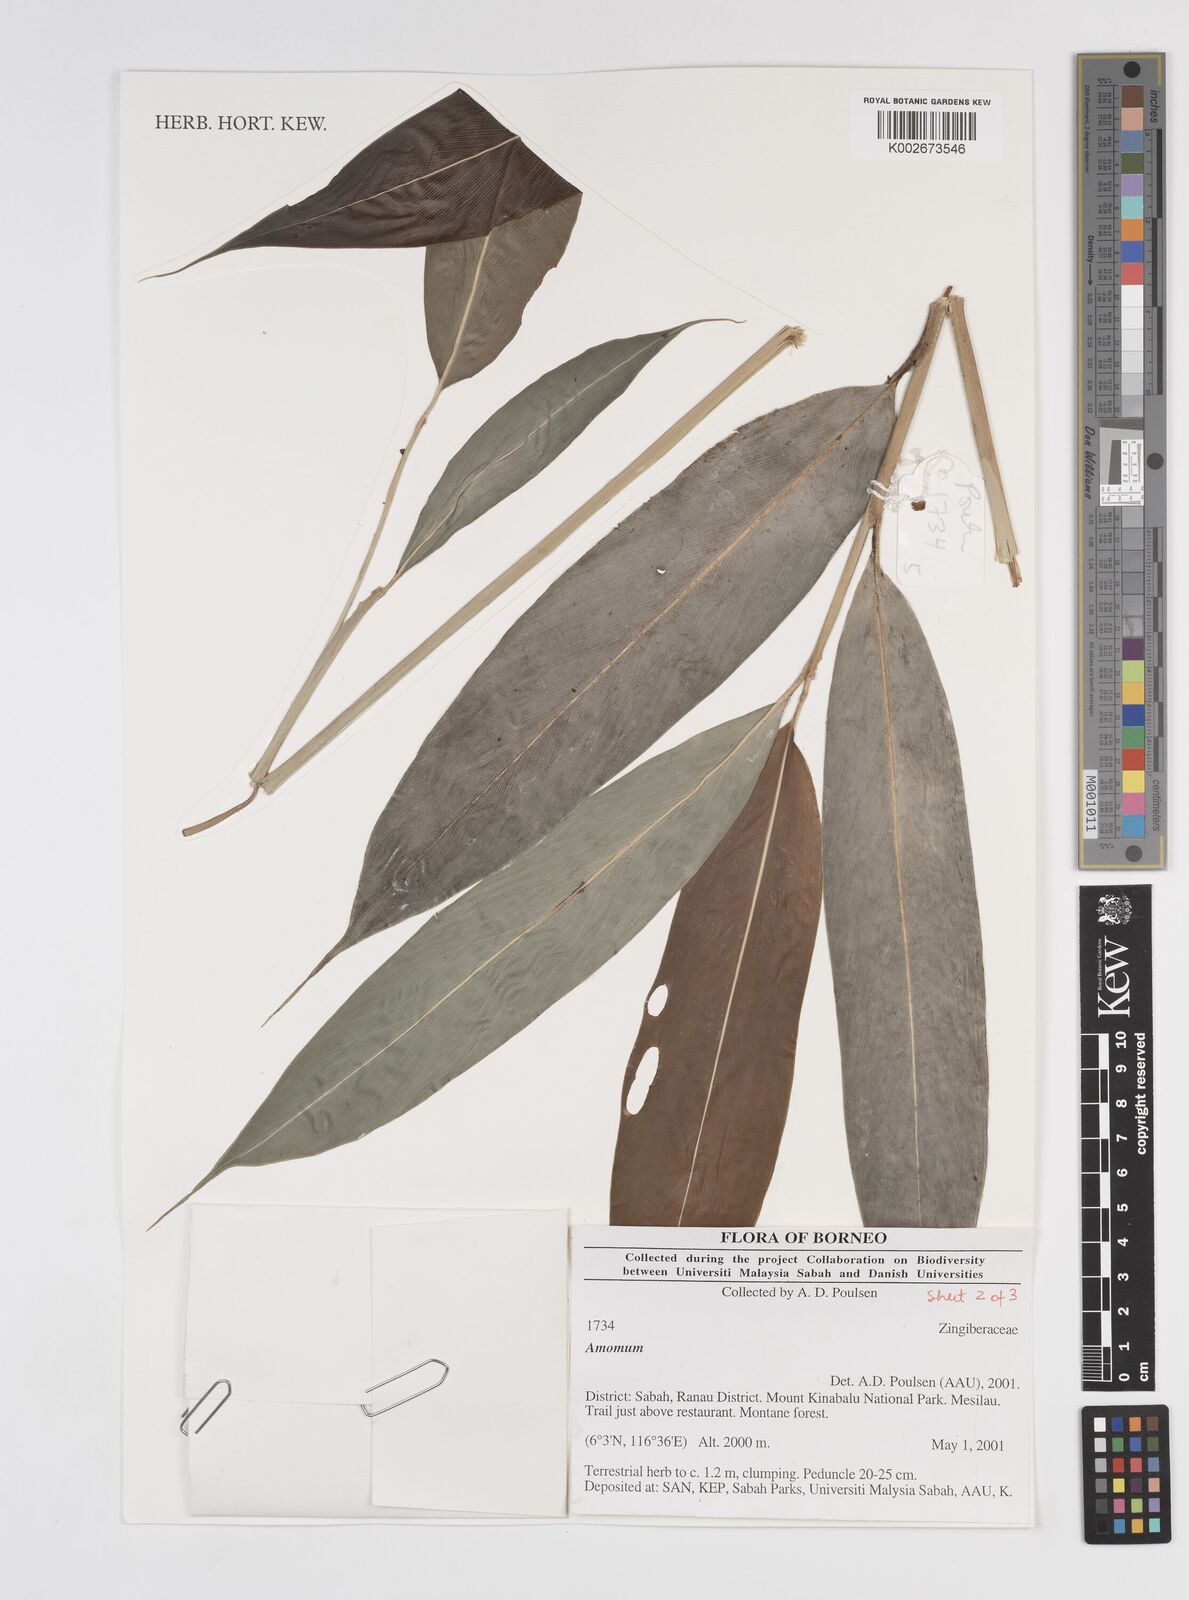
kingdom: Plantae
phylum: Tracheophyta
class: Liliopsida
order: Zingiberales
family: Zingiberaceae
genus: Amomum
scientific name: Amomum
